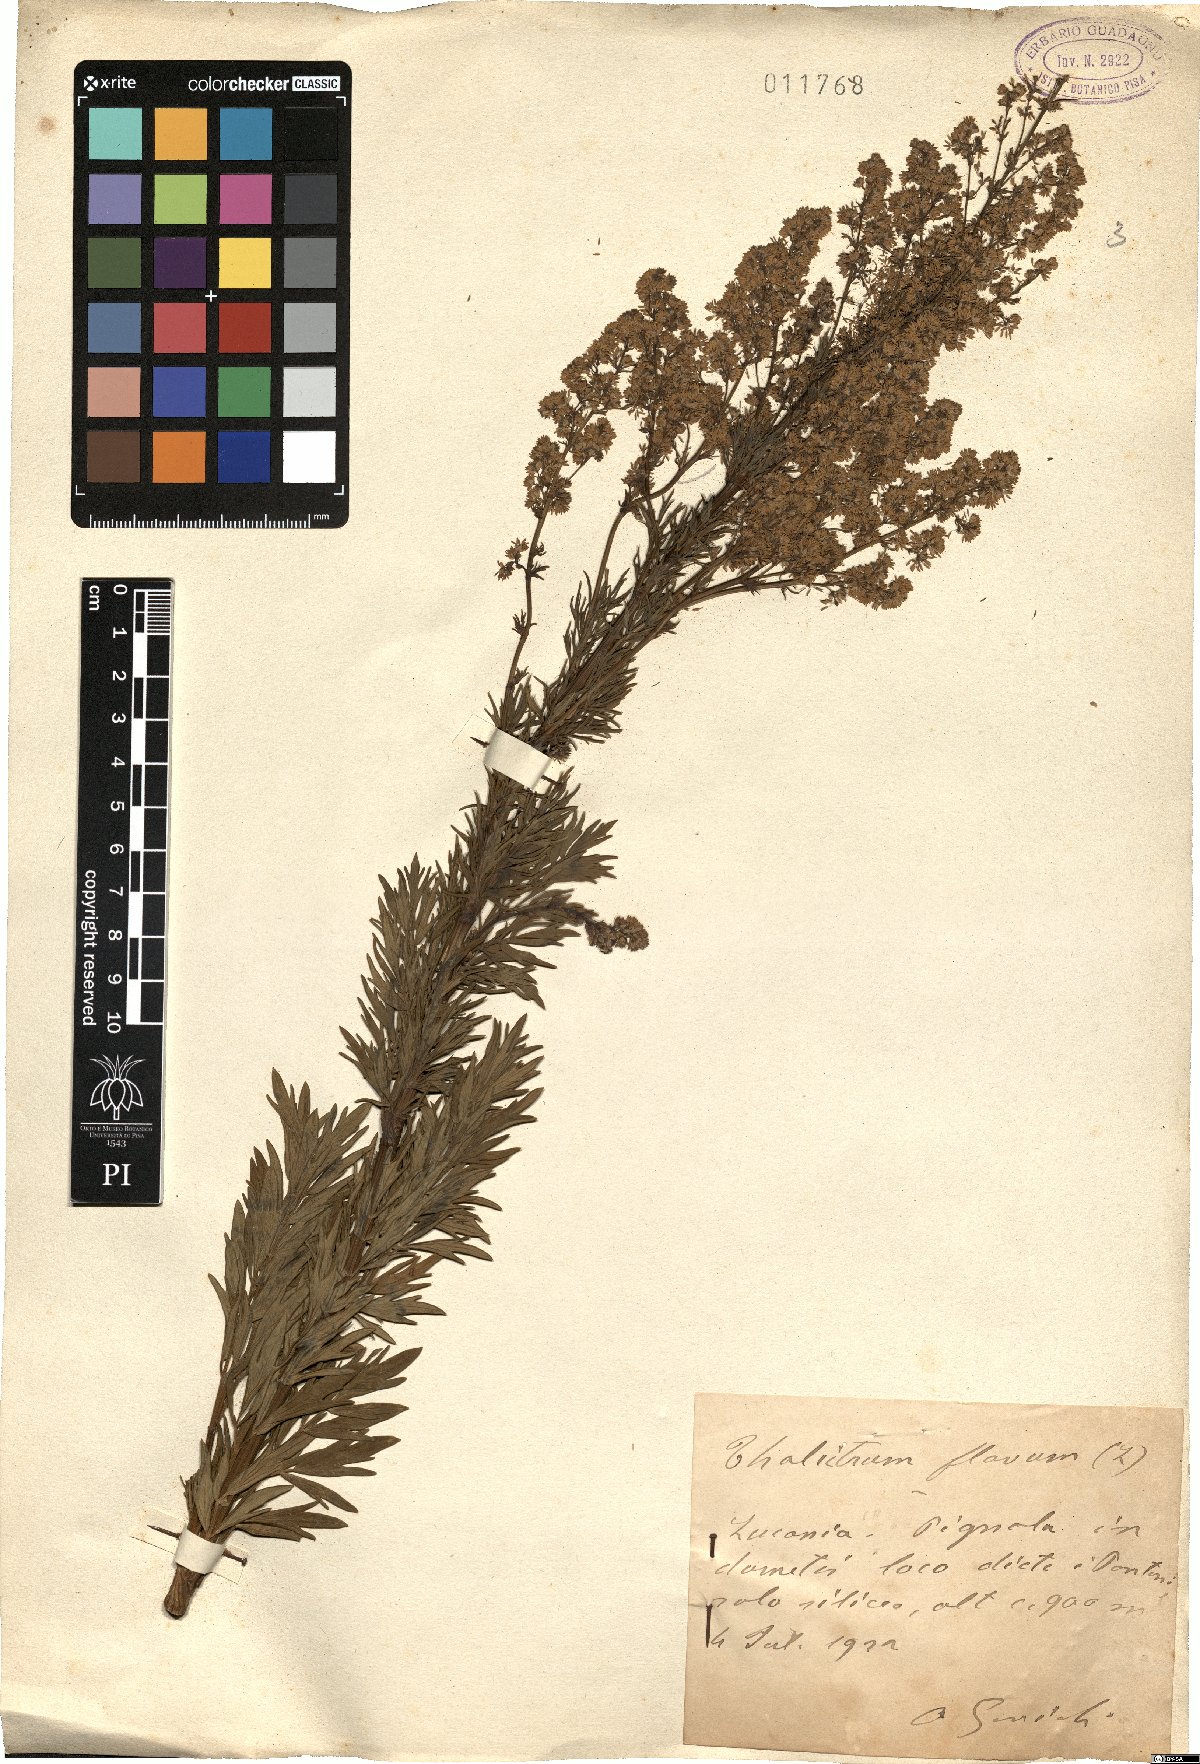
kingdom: Plantae
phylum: Tracheophyta
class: Magnoliopsida
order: Ranunculales
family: Ranunculaceae
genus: Thalictrum
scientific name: Thalictrum flavum
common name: Common meadow-rue
